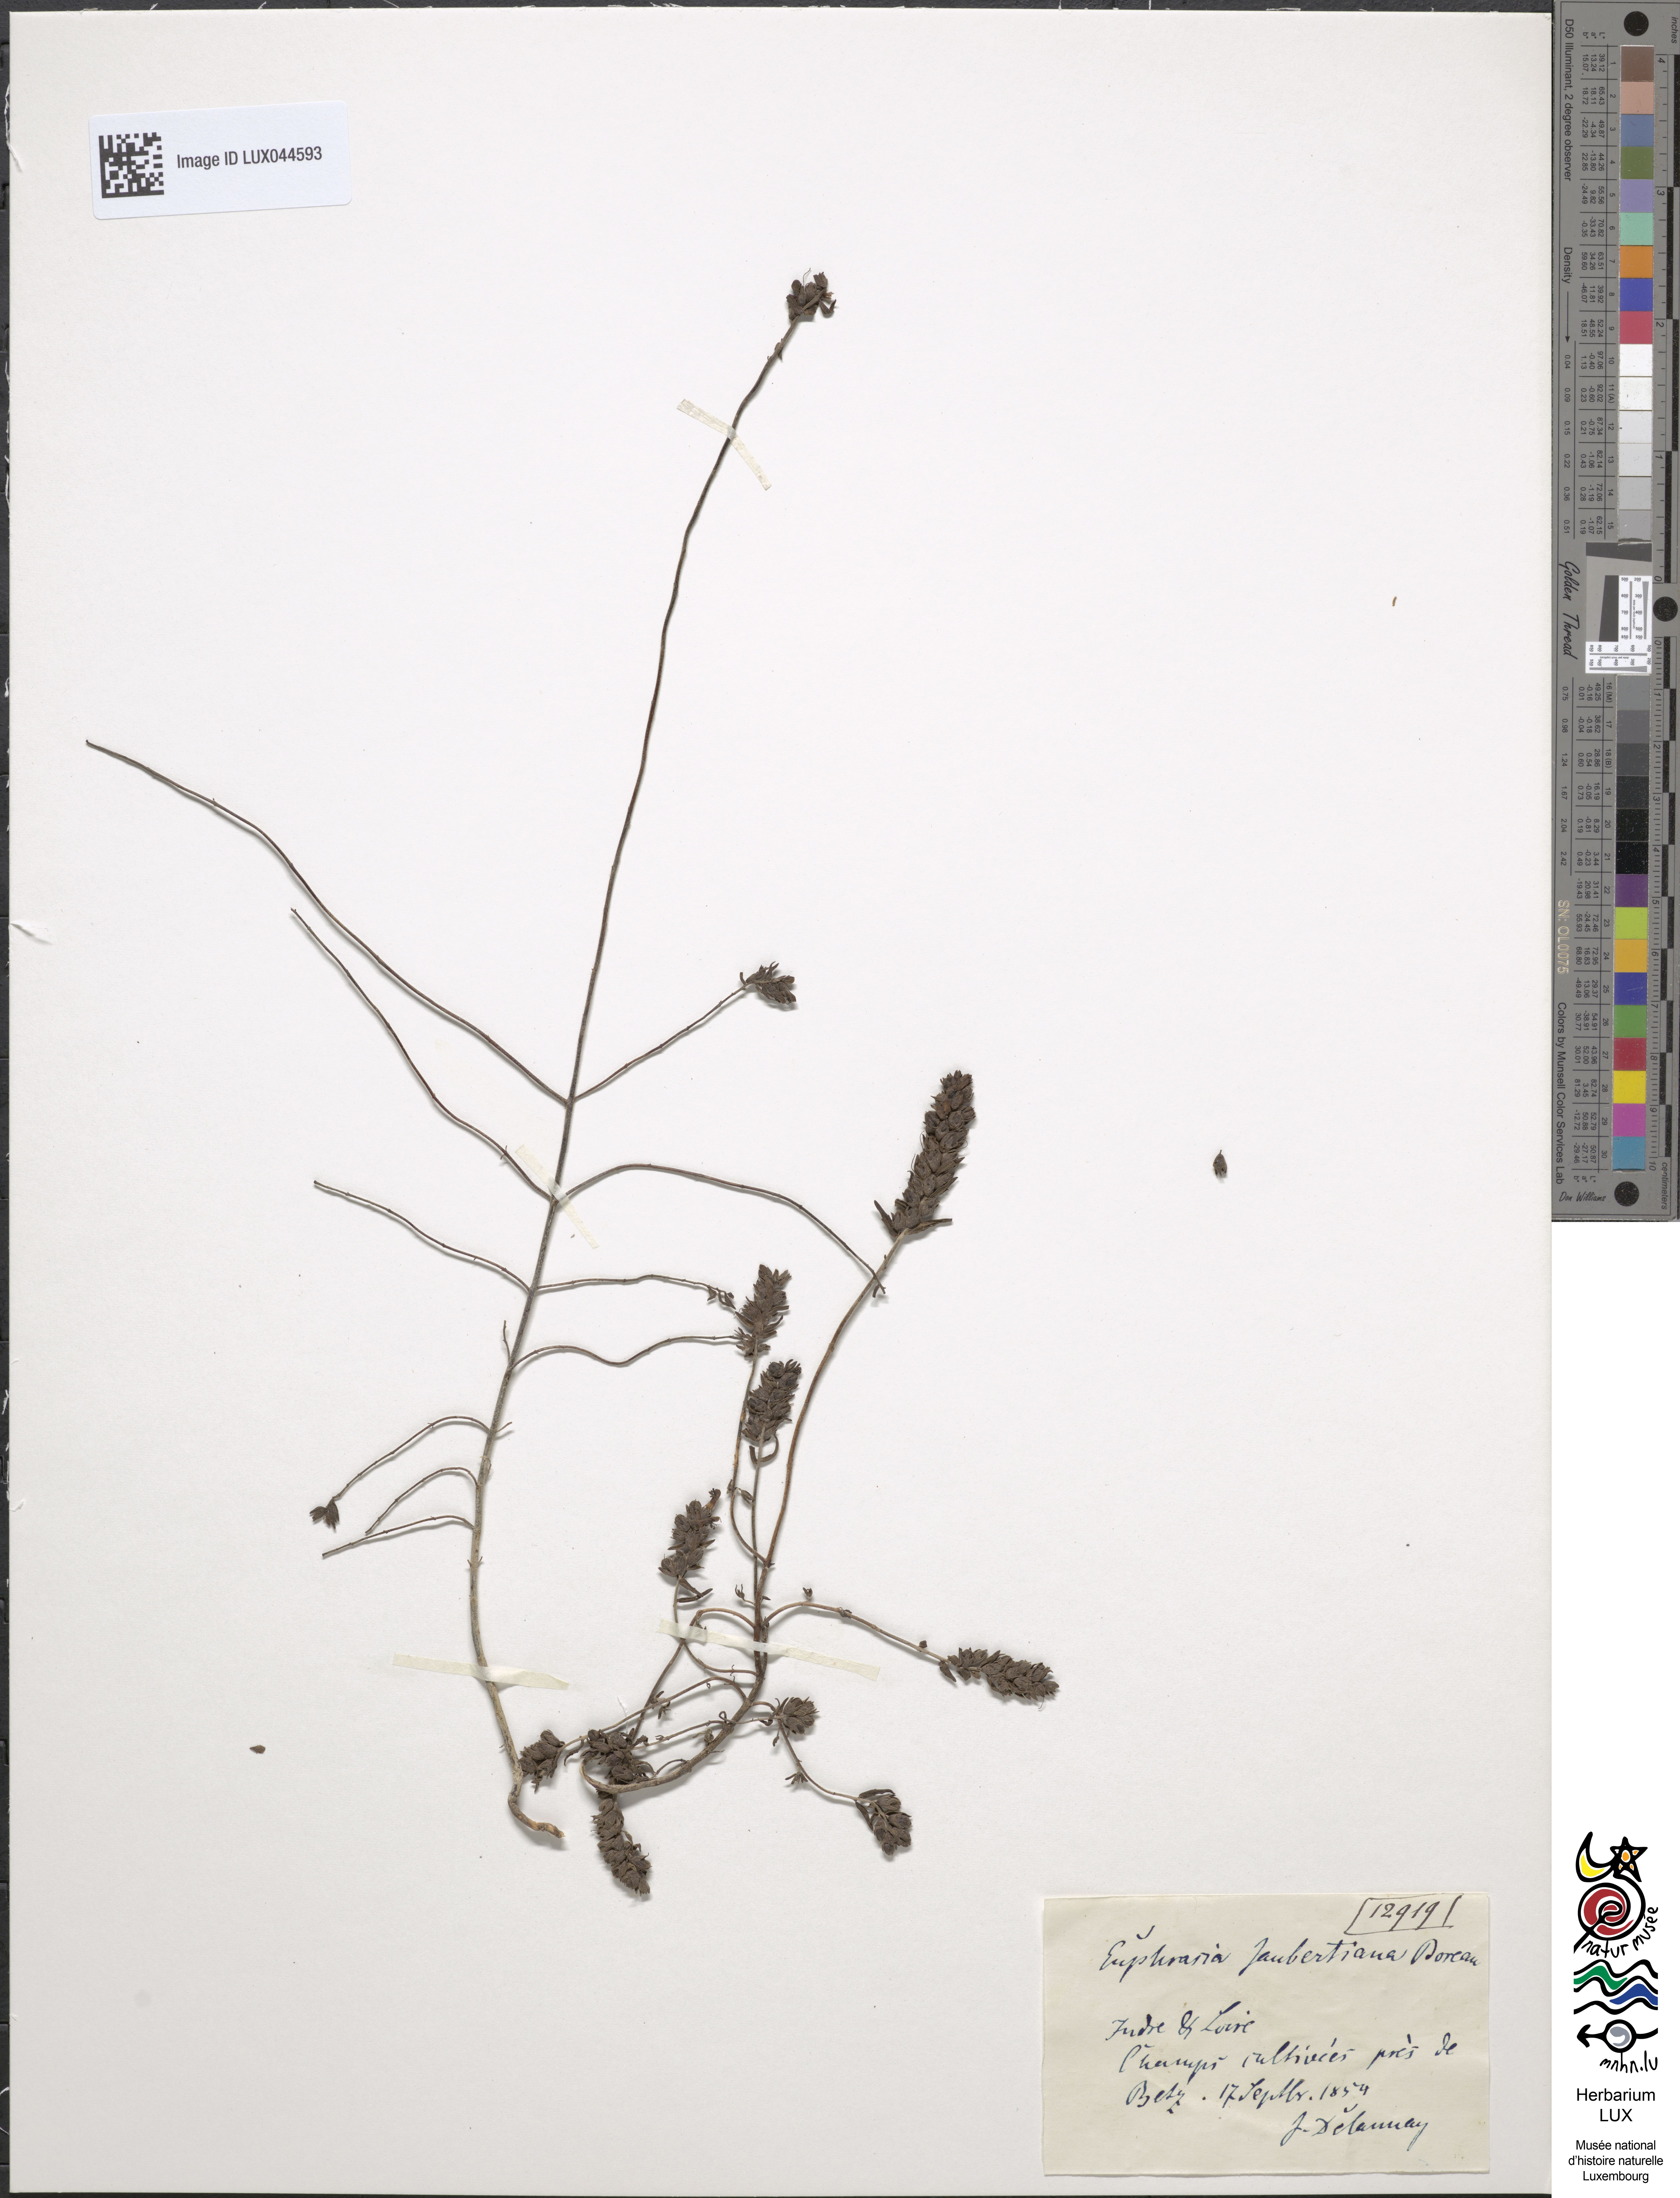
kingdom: Plantae
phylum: Tracheophyta
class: Magnoliopsida
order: Lamiales
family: Orobanchaceae
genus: Odontites
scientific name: Odontites jaubertianus
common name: French bartsia
